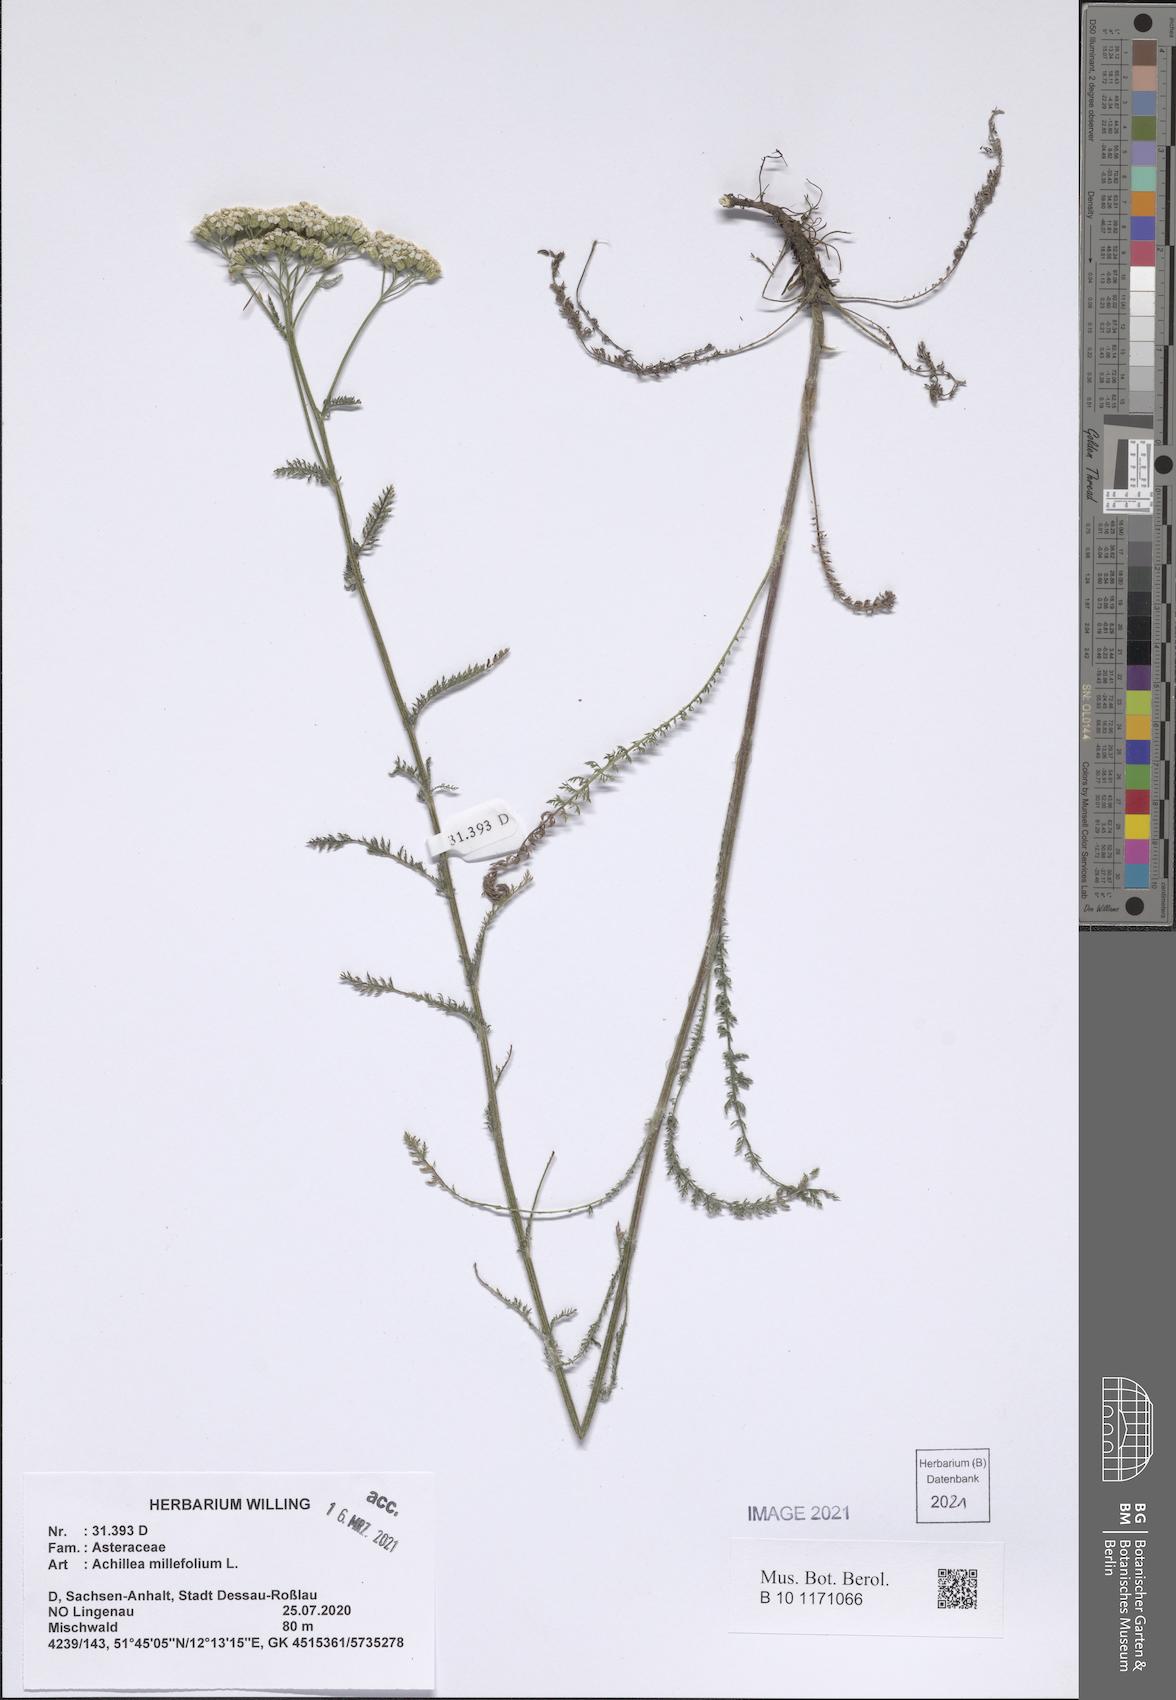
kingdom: Plantae
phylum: Tracheophyta
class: Magnoliopsida
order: Asterales
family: Asteraceae
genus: Achillea
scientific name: Achillea millefolium
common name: Yarrow
